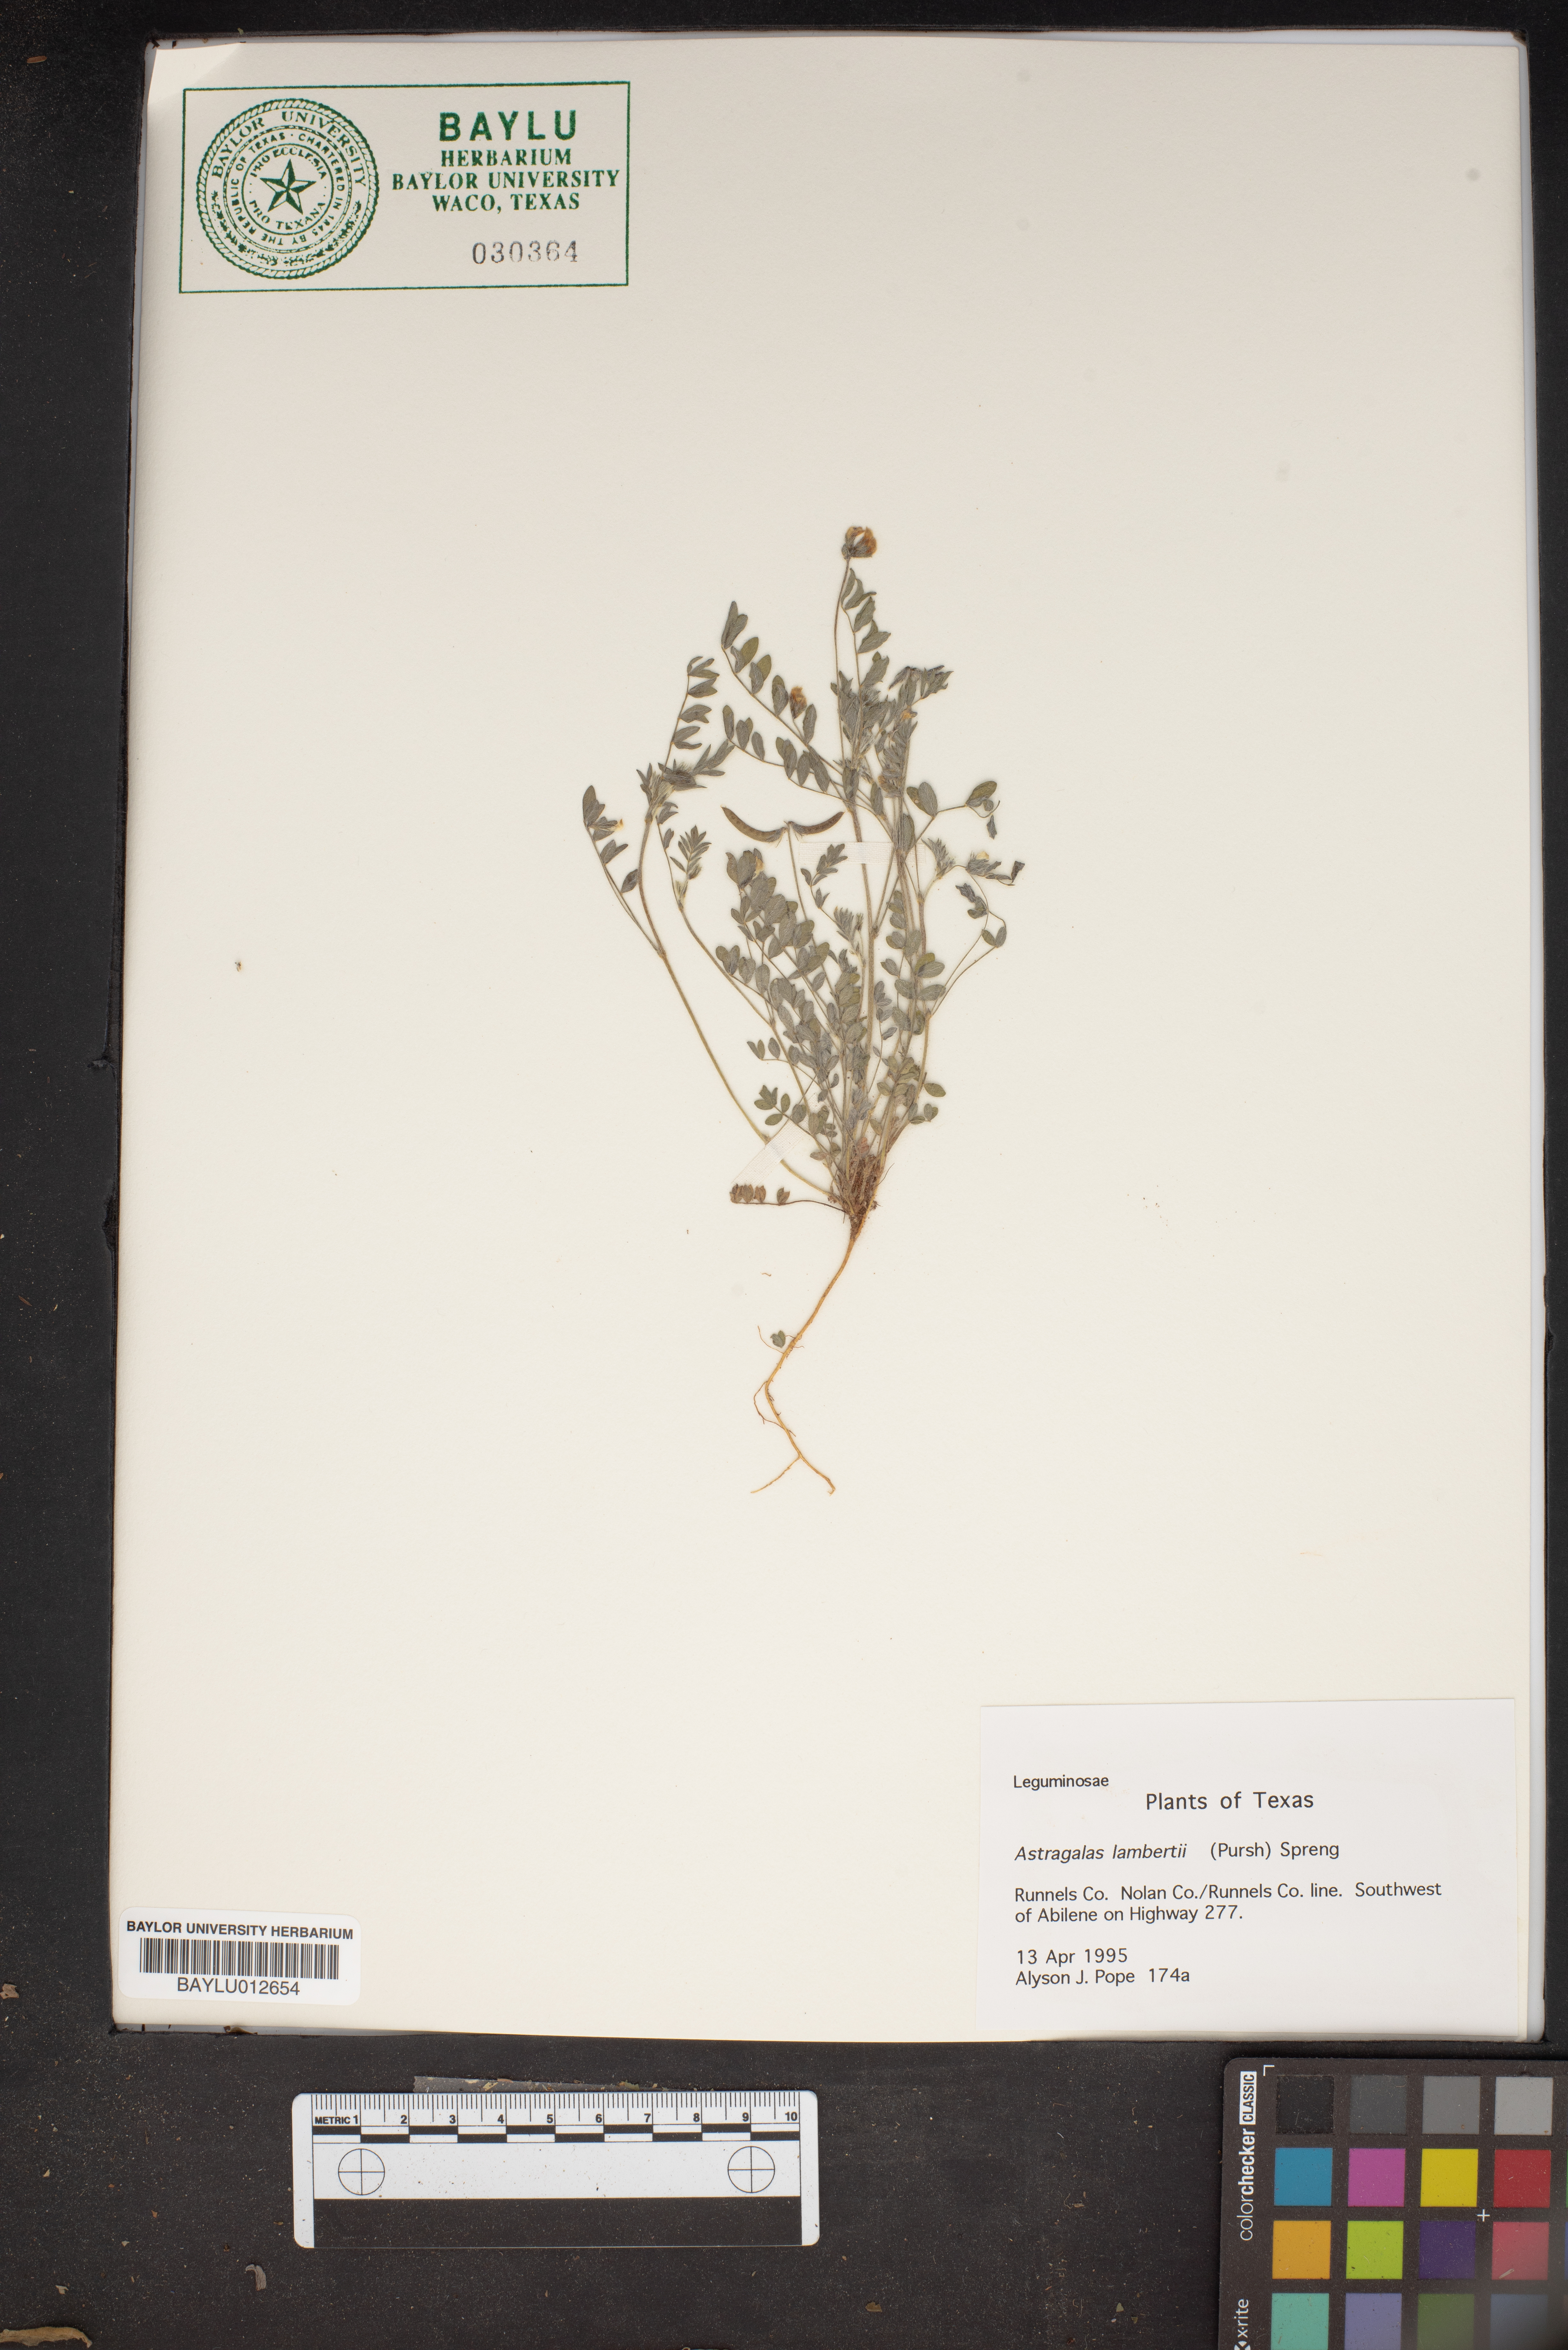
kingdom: Plantae
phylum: Tracheophyta
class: Magnoliopsida
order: Fabales
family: Fabaceae
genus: Oxytropis
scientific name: Oxytropis lambertii
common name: Purple locoweed
